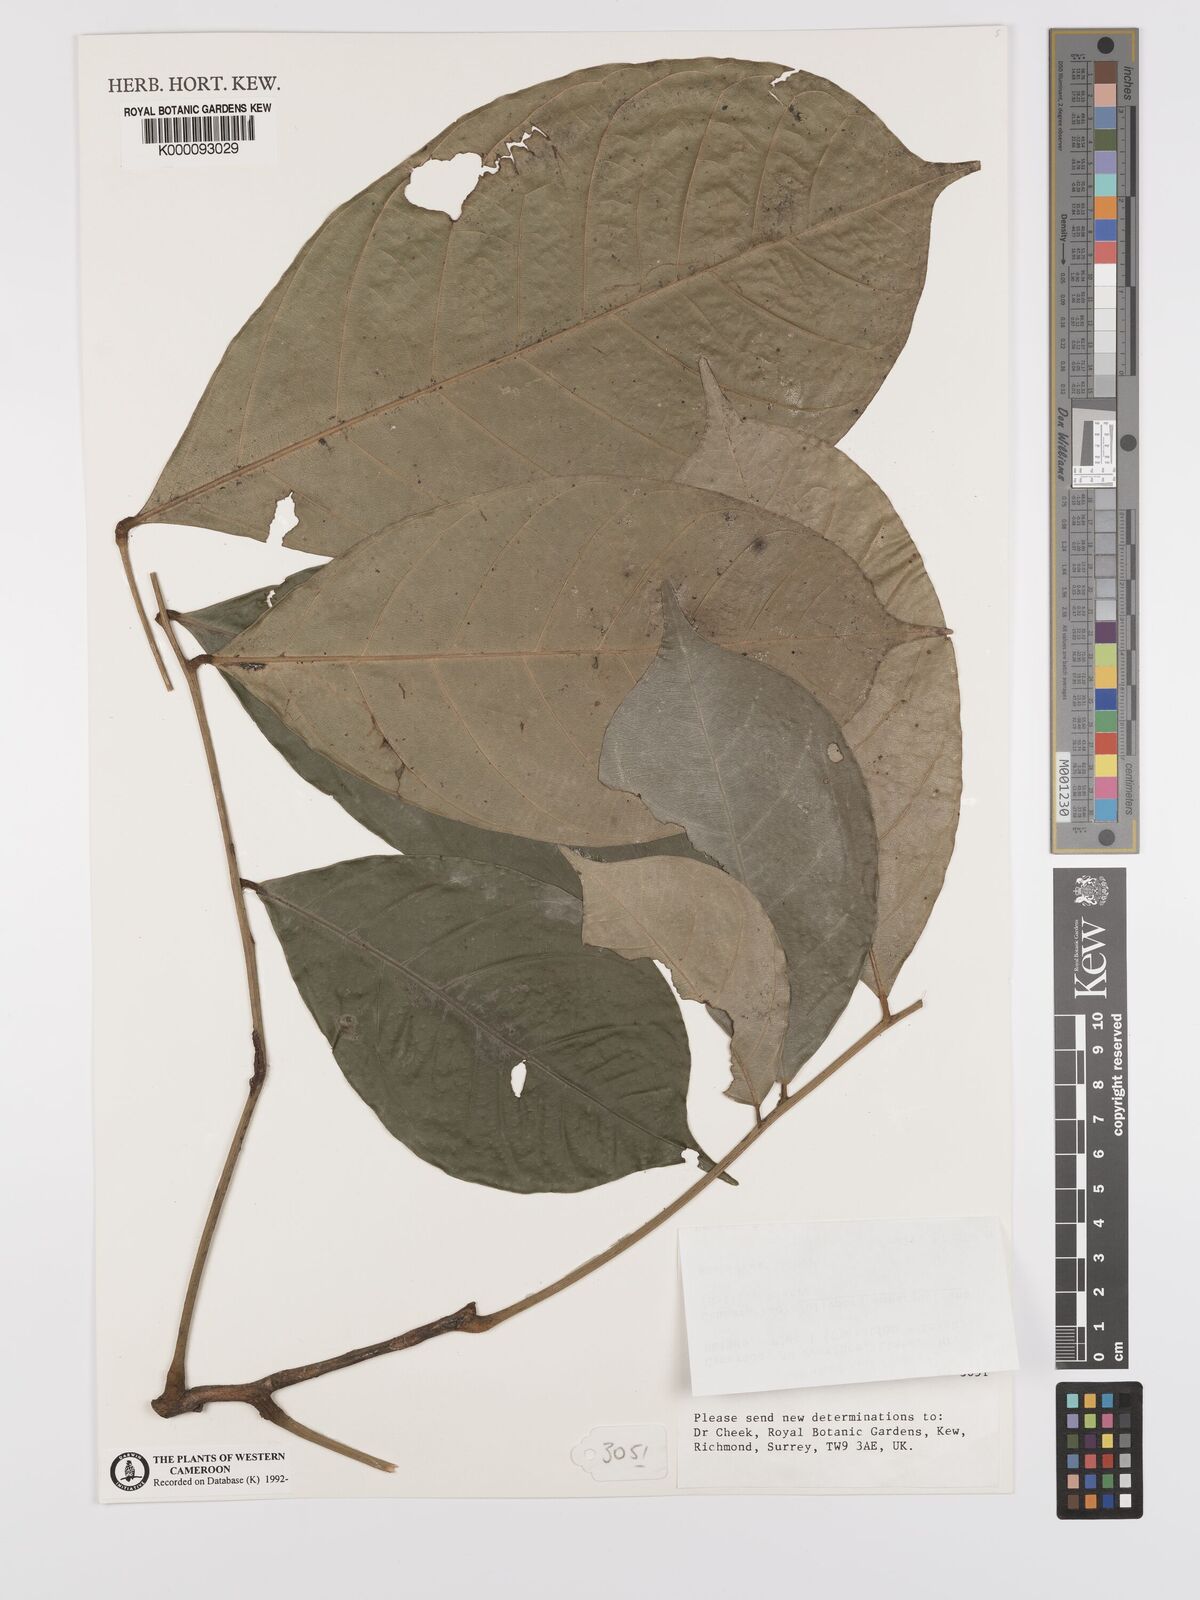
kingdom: Plantae
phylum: Tracheophyta
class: Magnoliopsida
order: Oxalidales
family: Connaraceae
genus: Jollydora
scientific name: Jollydora duparquetiana
